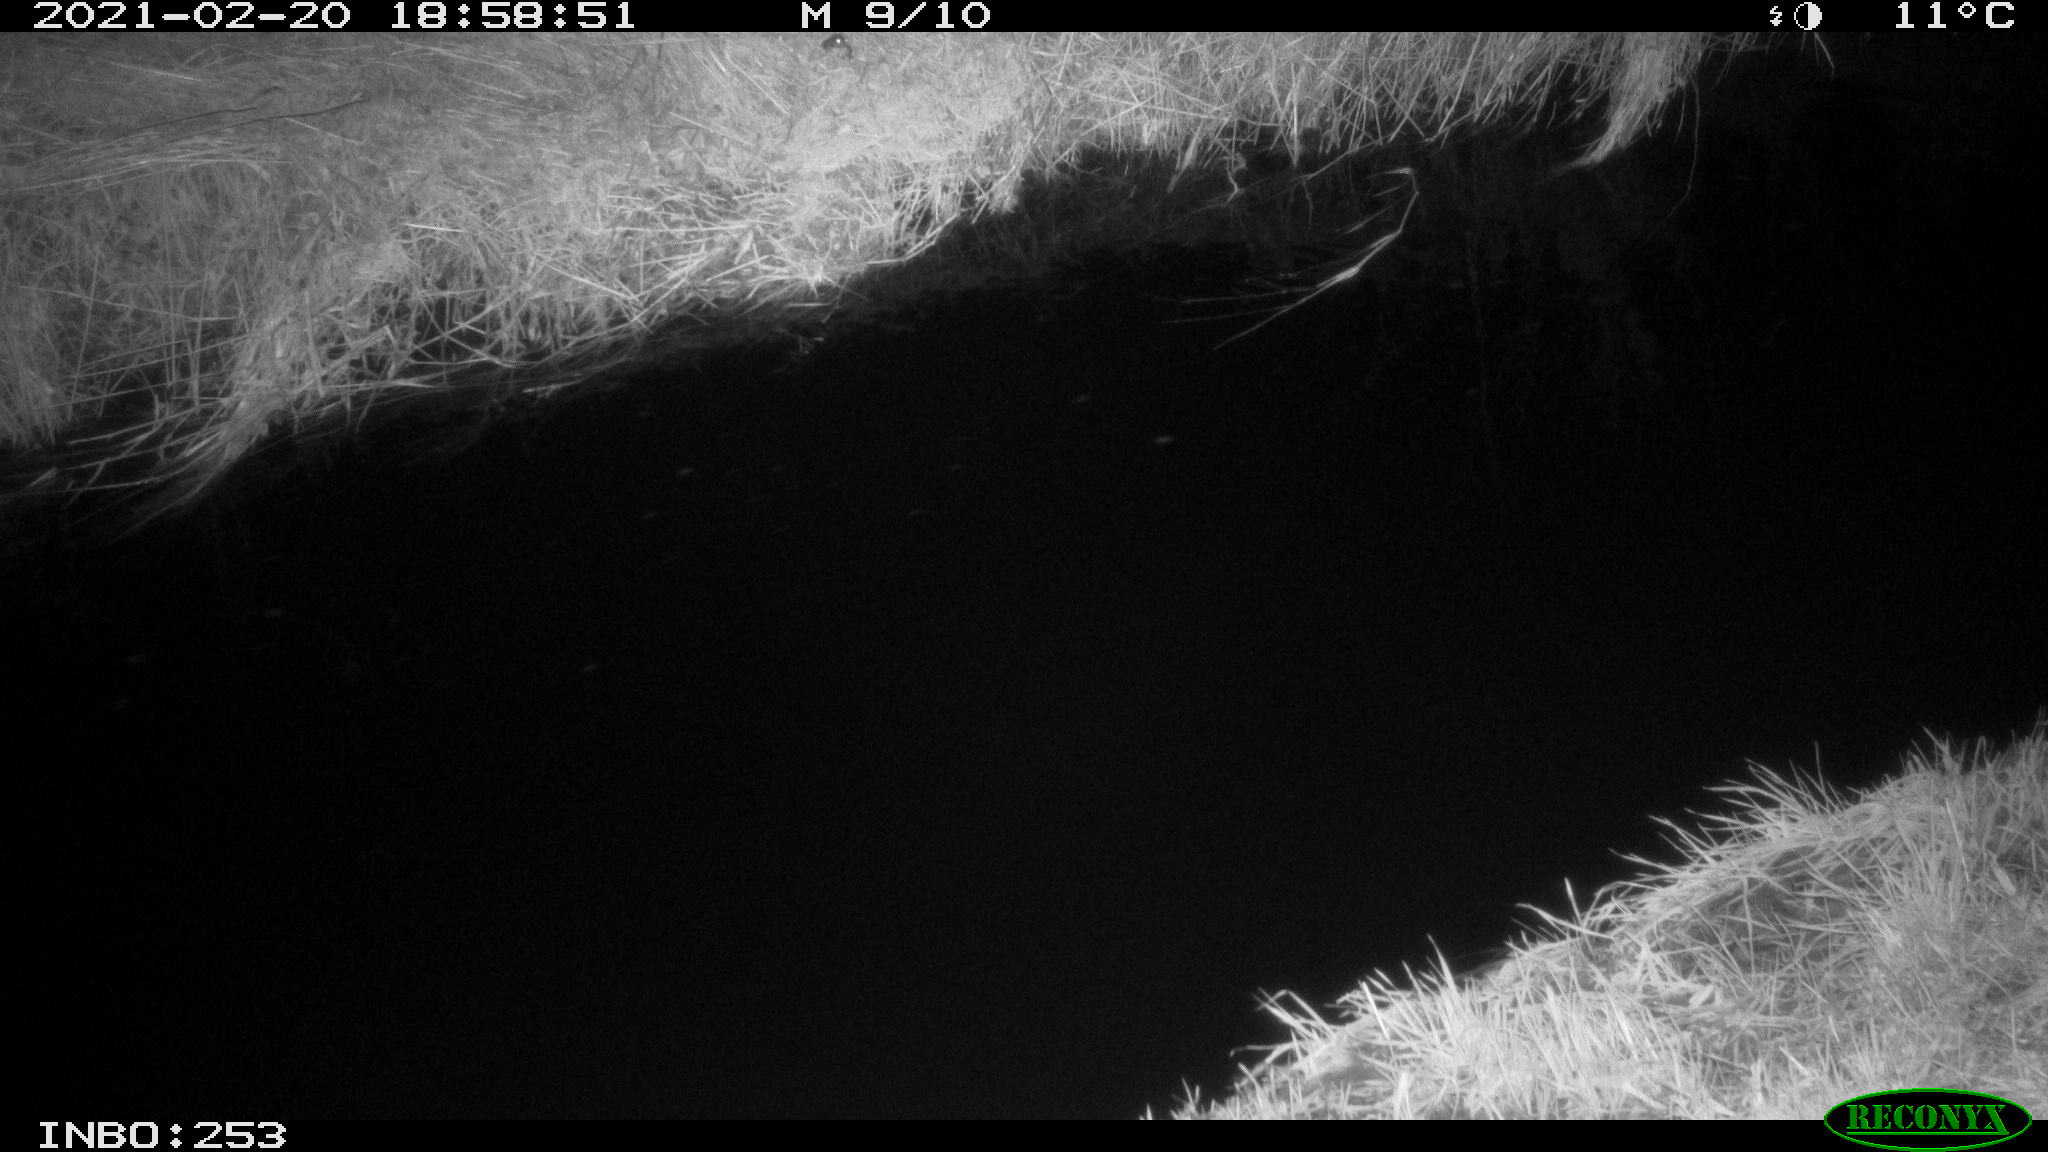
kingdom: Animalia
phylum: Chordata
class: Aves
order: Anseriformes
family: Anatidae
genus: Anas
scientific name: Anas platyrhynchos
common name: Mallard
